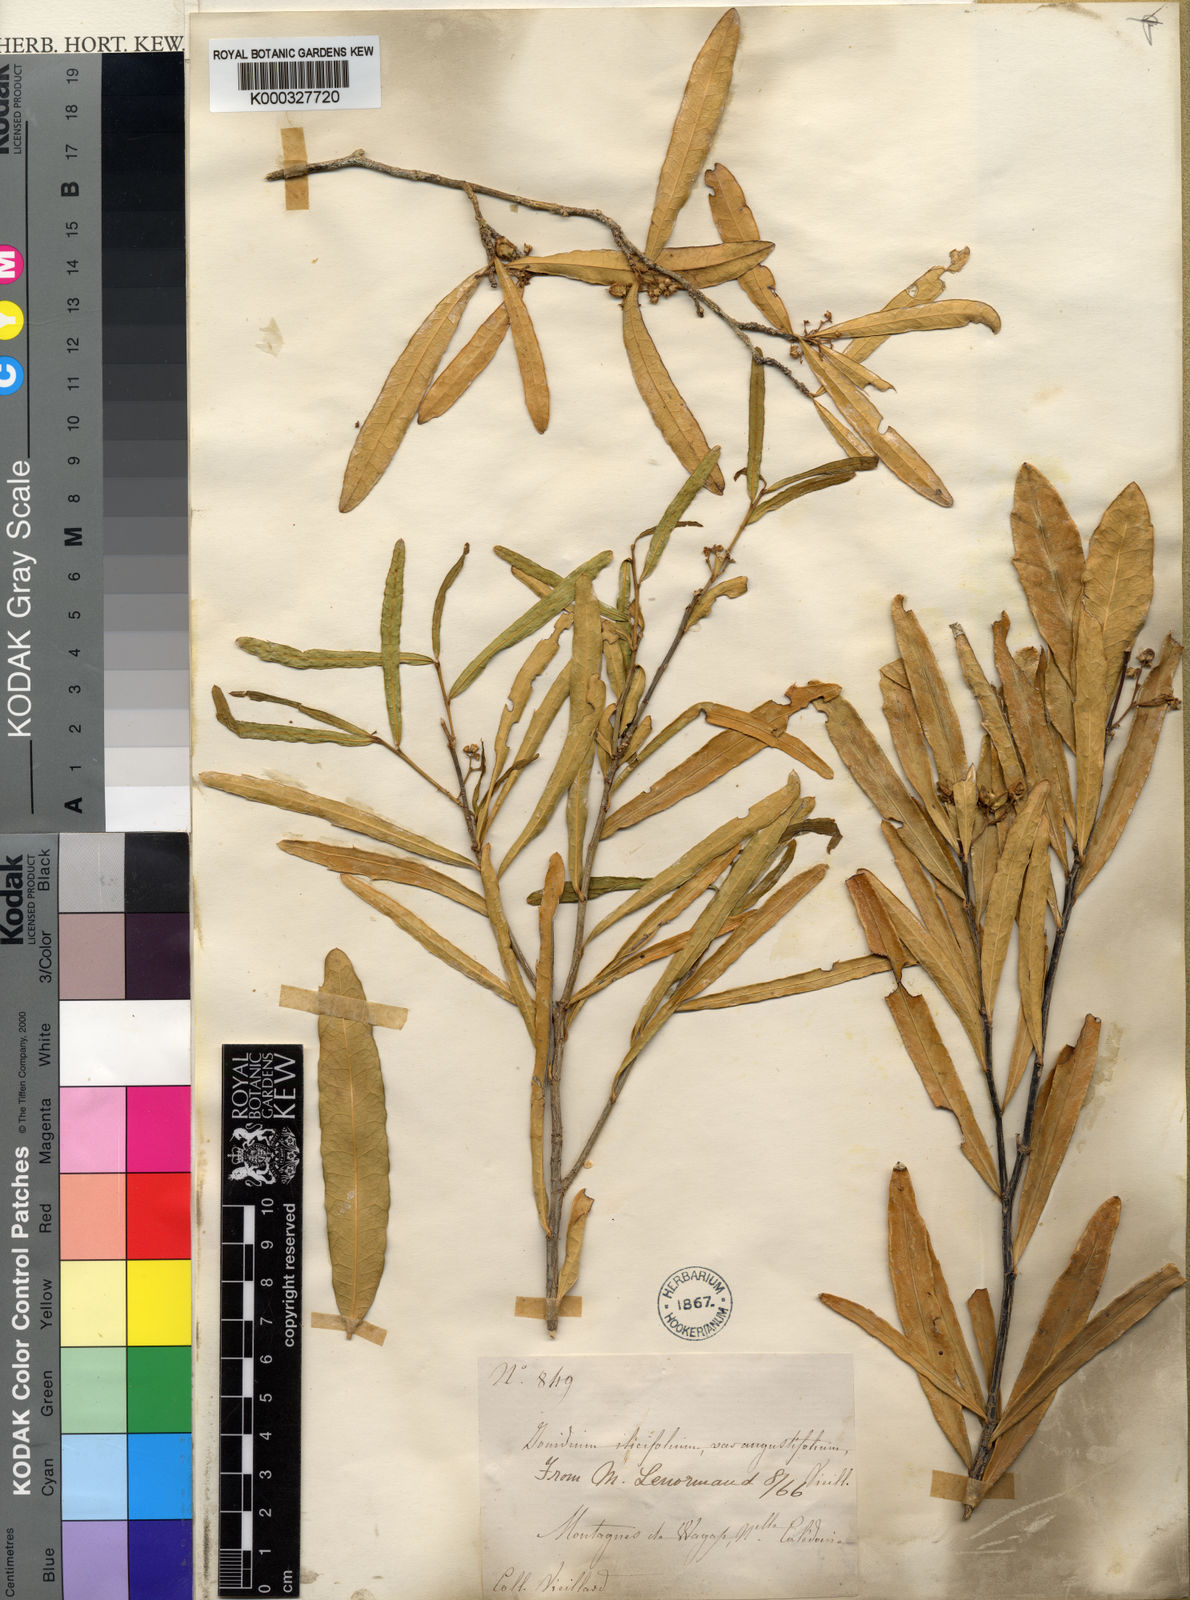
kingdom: Plantae
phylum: Tracheophyta
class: Magnoliopsida
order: Malpighiales
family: Violaceae
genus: Pigea
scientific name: Pigea caledonica
